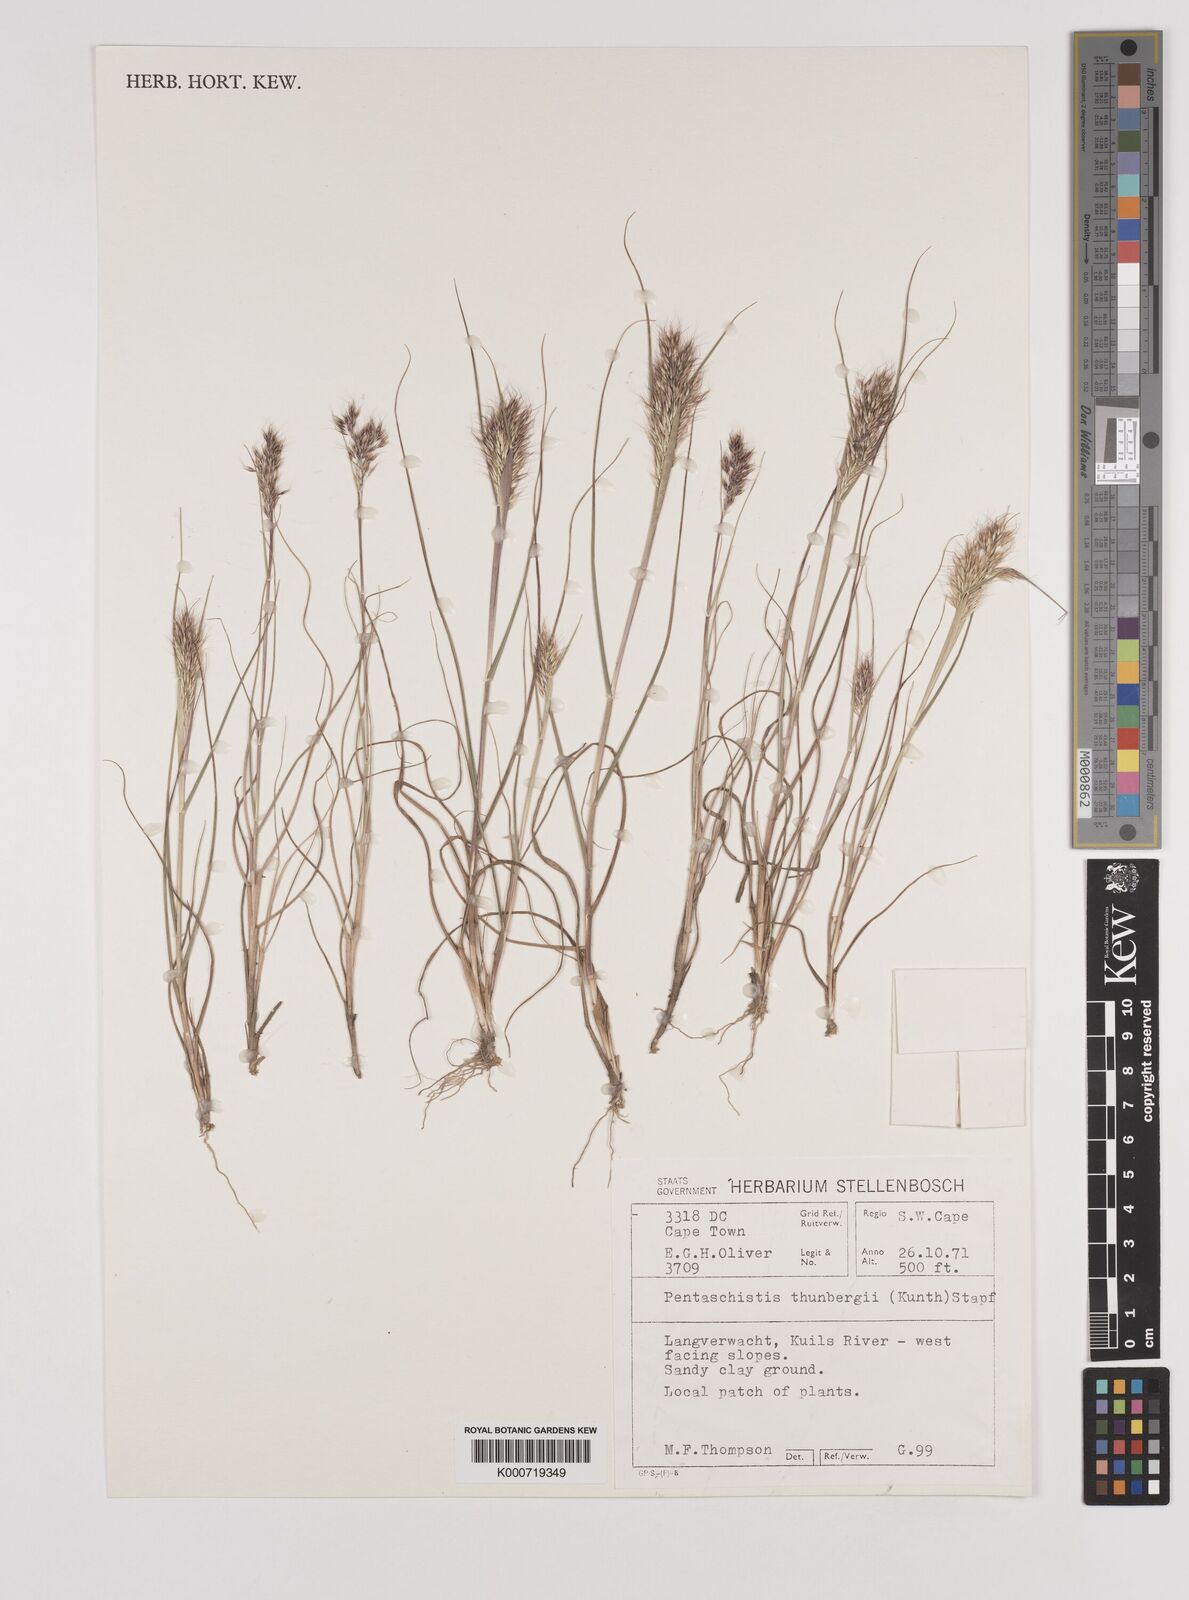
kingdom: Plantae
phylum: Tracheophyta
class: Liliopsida
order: Poales
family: Poaceae
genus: Pentameris
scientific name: Pentameris triseta
